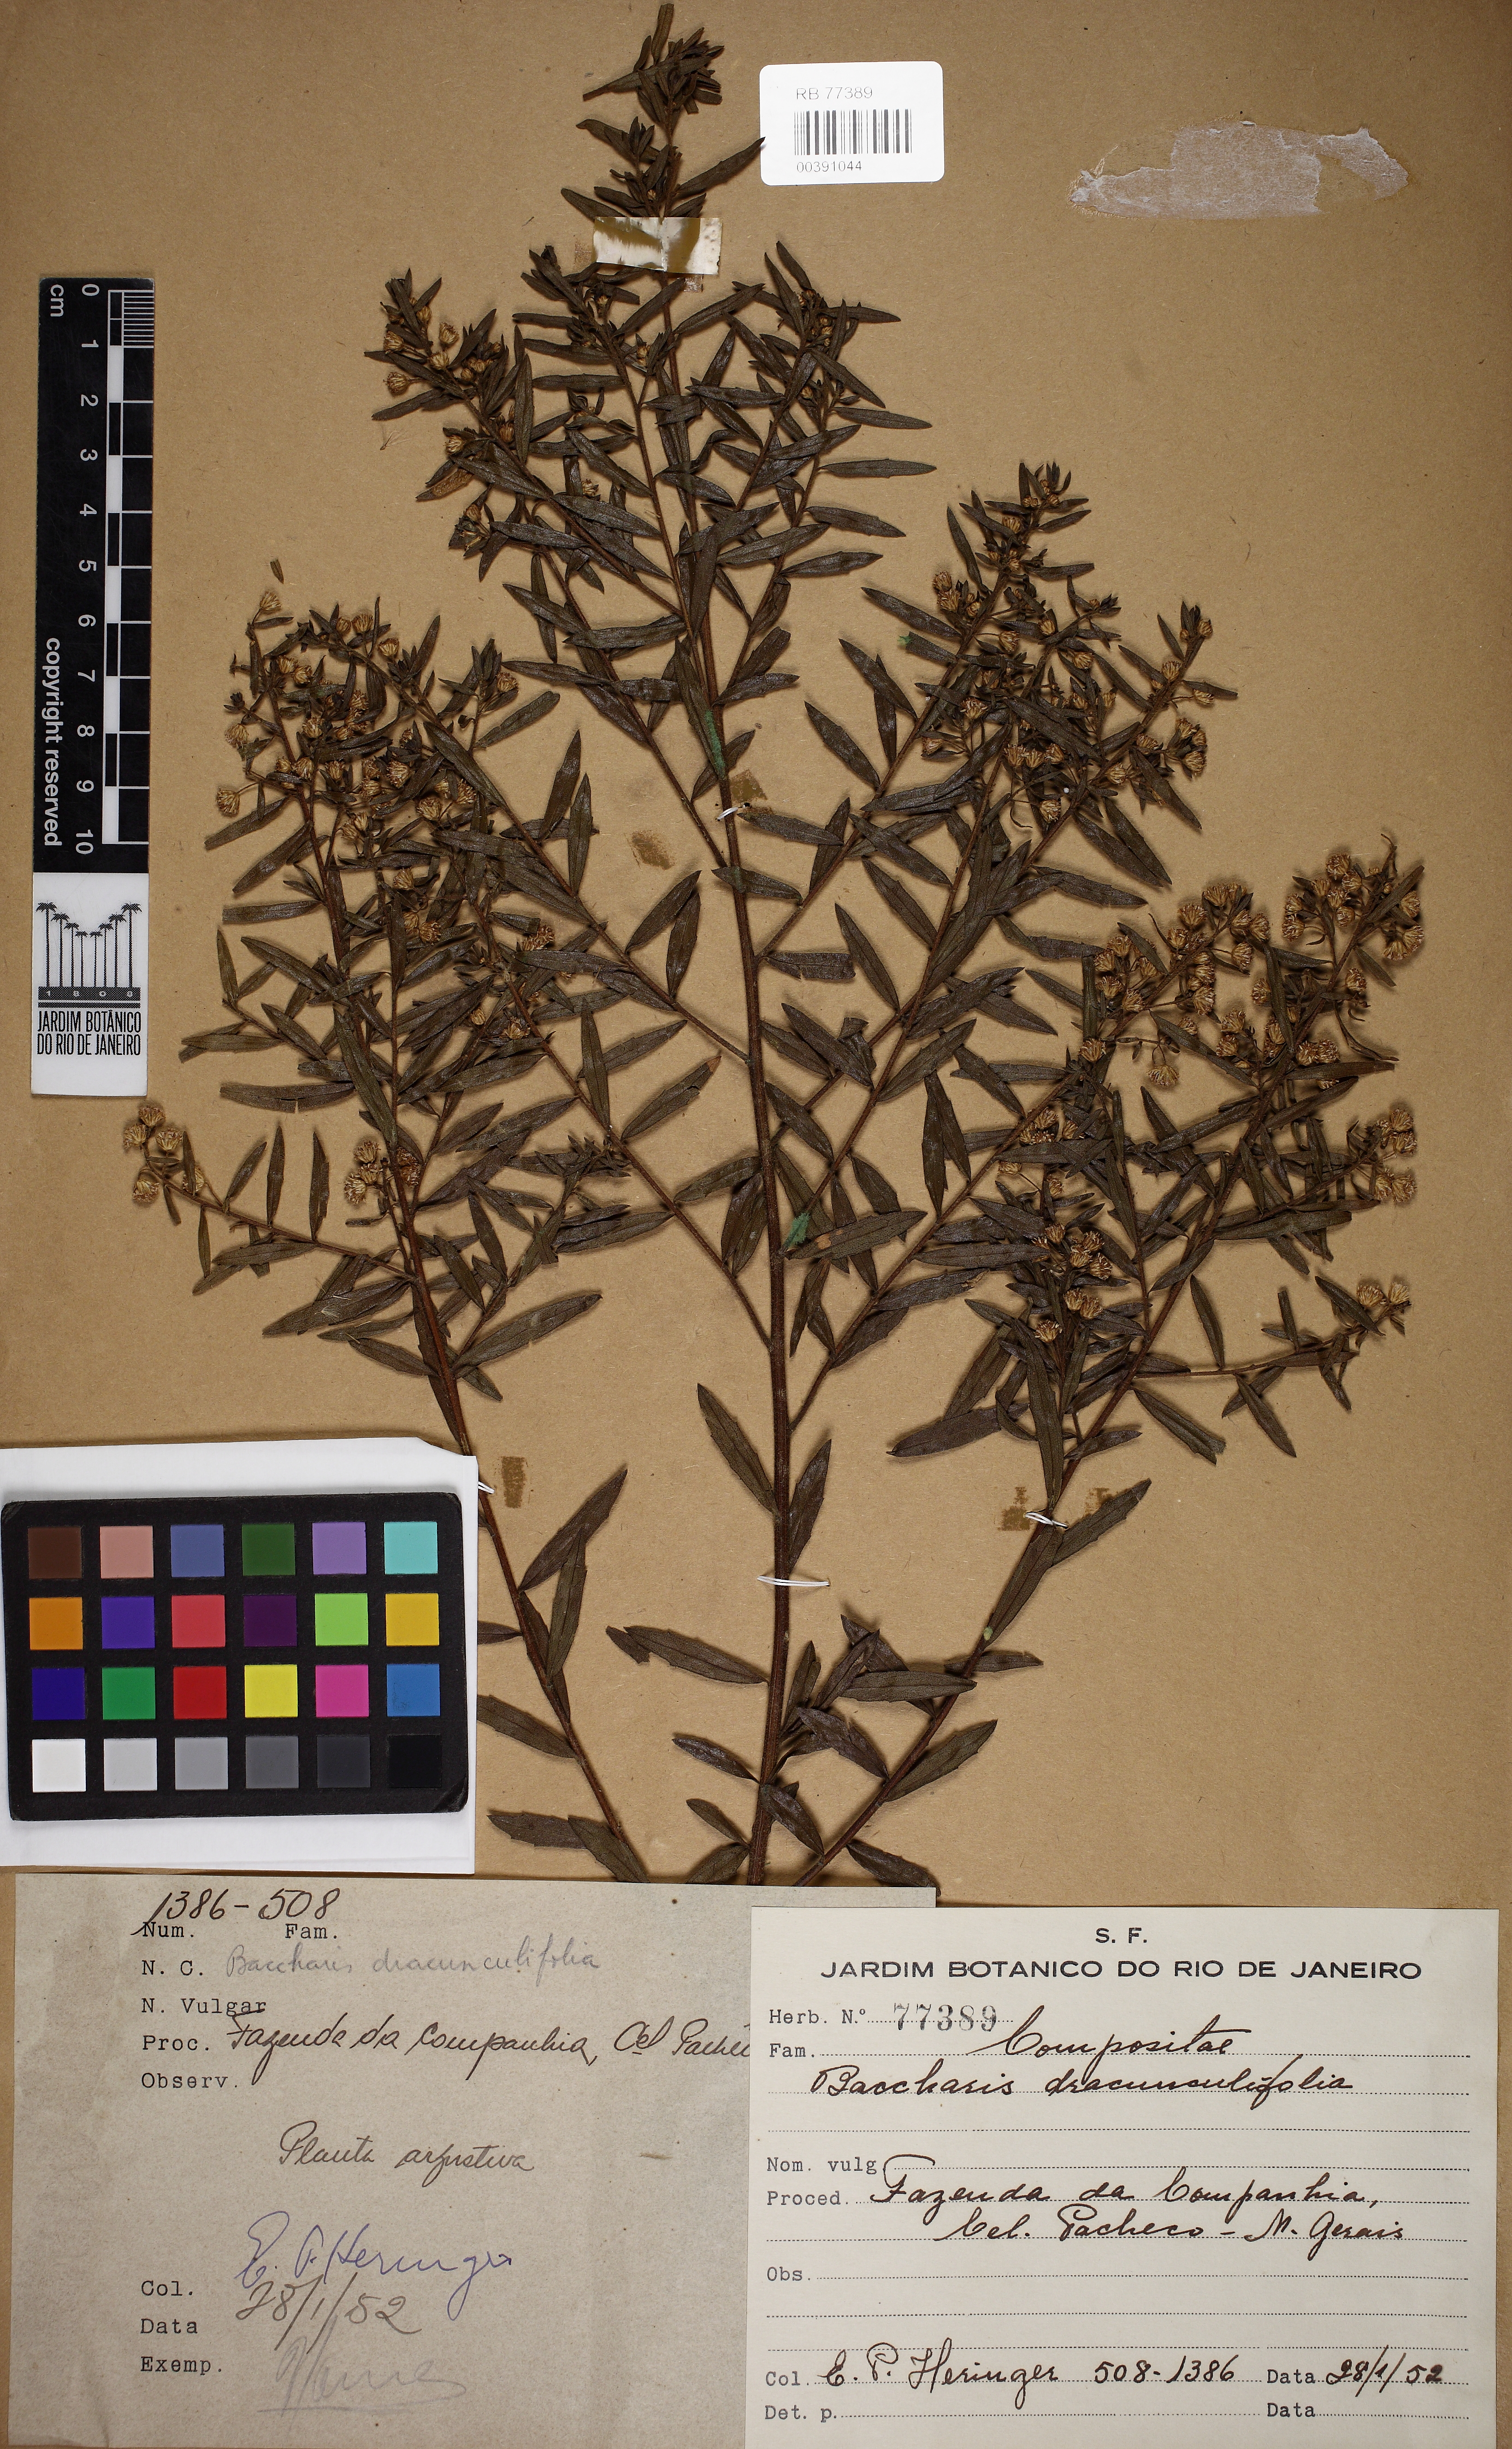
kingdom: Plantae
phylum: Tracheophyta
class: Magnoliopsida
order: Asterales
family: Asteraceae
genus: Baccharis
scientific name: Baccharis dracunculifolia
